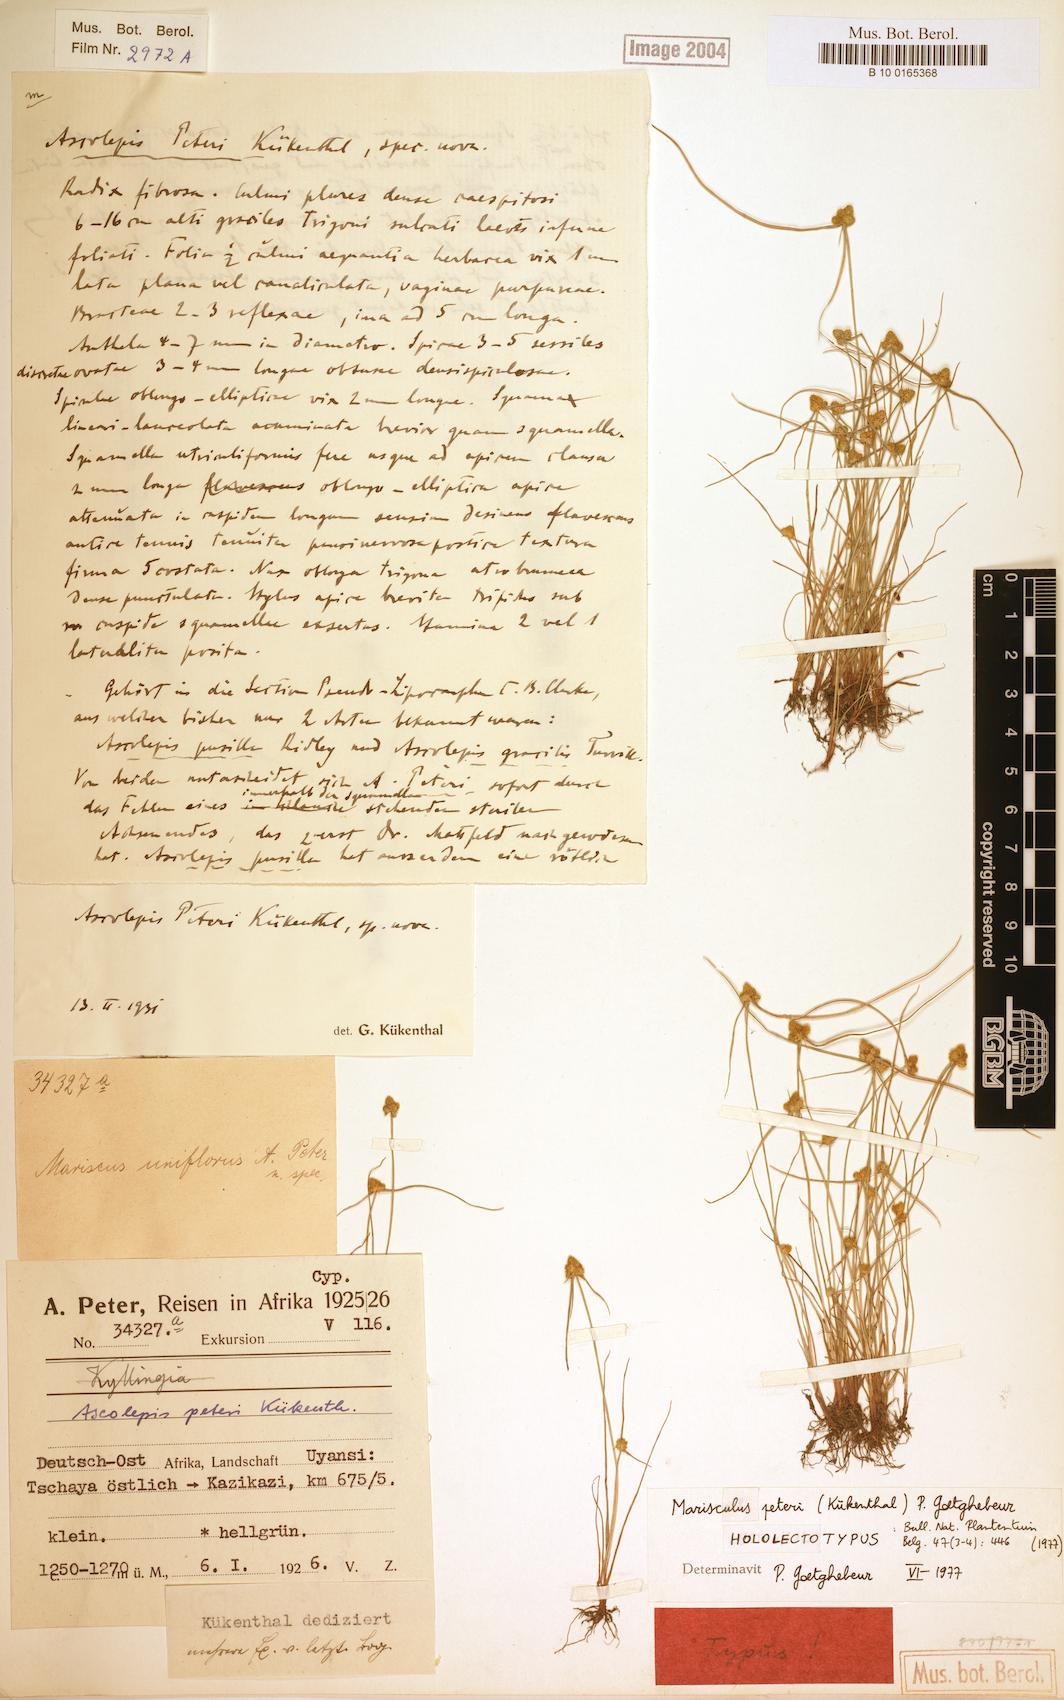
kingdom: Plantae
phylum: Tracheophyta
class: Liliopsida
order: Poales
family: Cyperaceae
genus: Cyperus
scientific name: Cyperus microaureus
